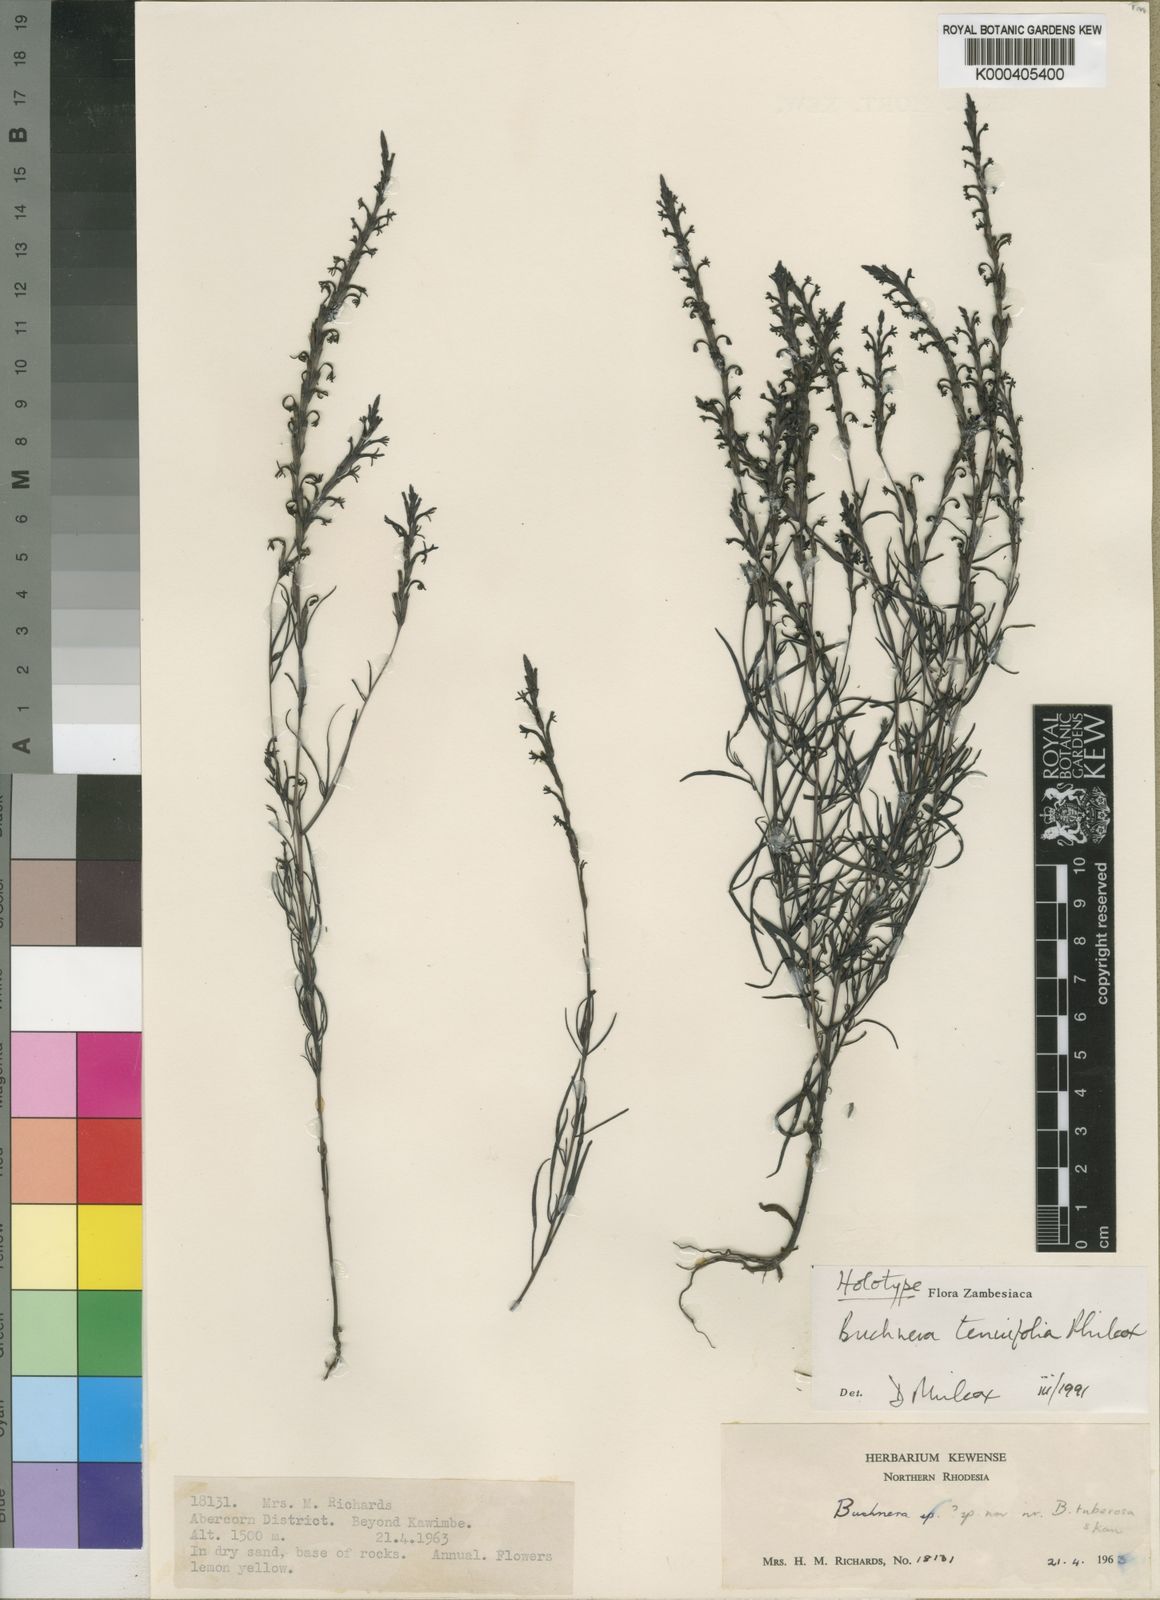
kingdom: Plantae
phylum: Tracheophyta
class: Magnoliopsida
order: Lamiales
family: Orobanchaceae
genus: Buchnera
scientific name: Buchnera tenuifolia
